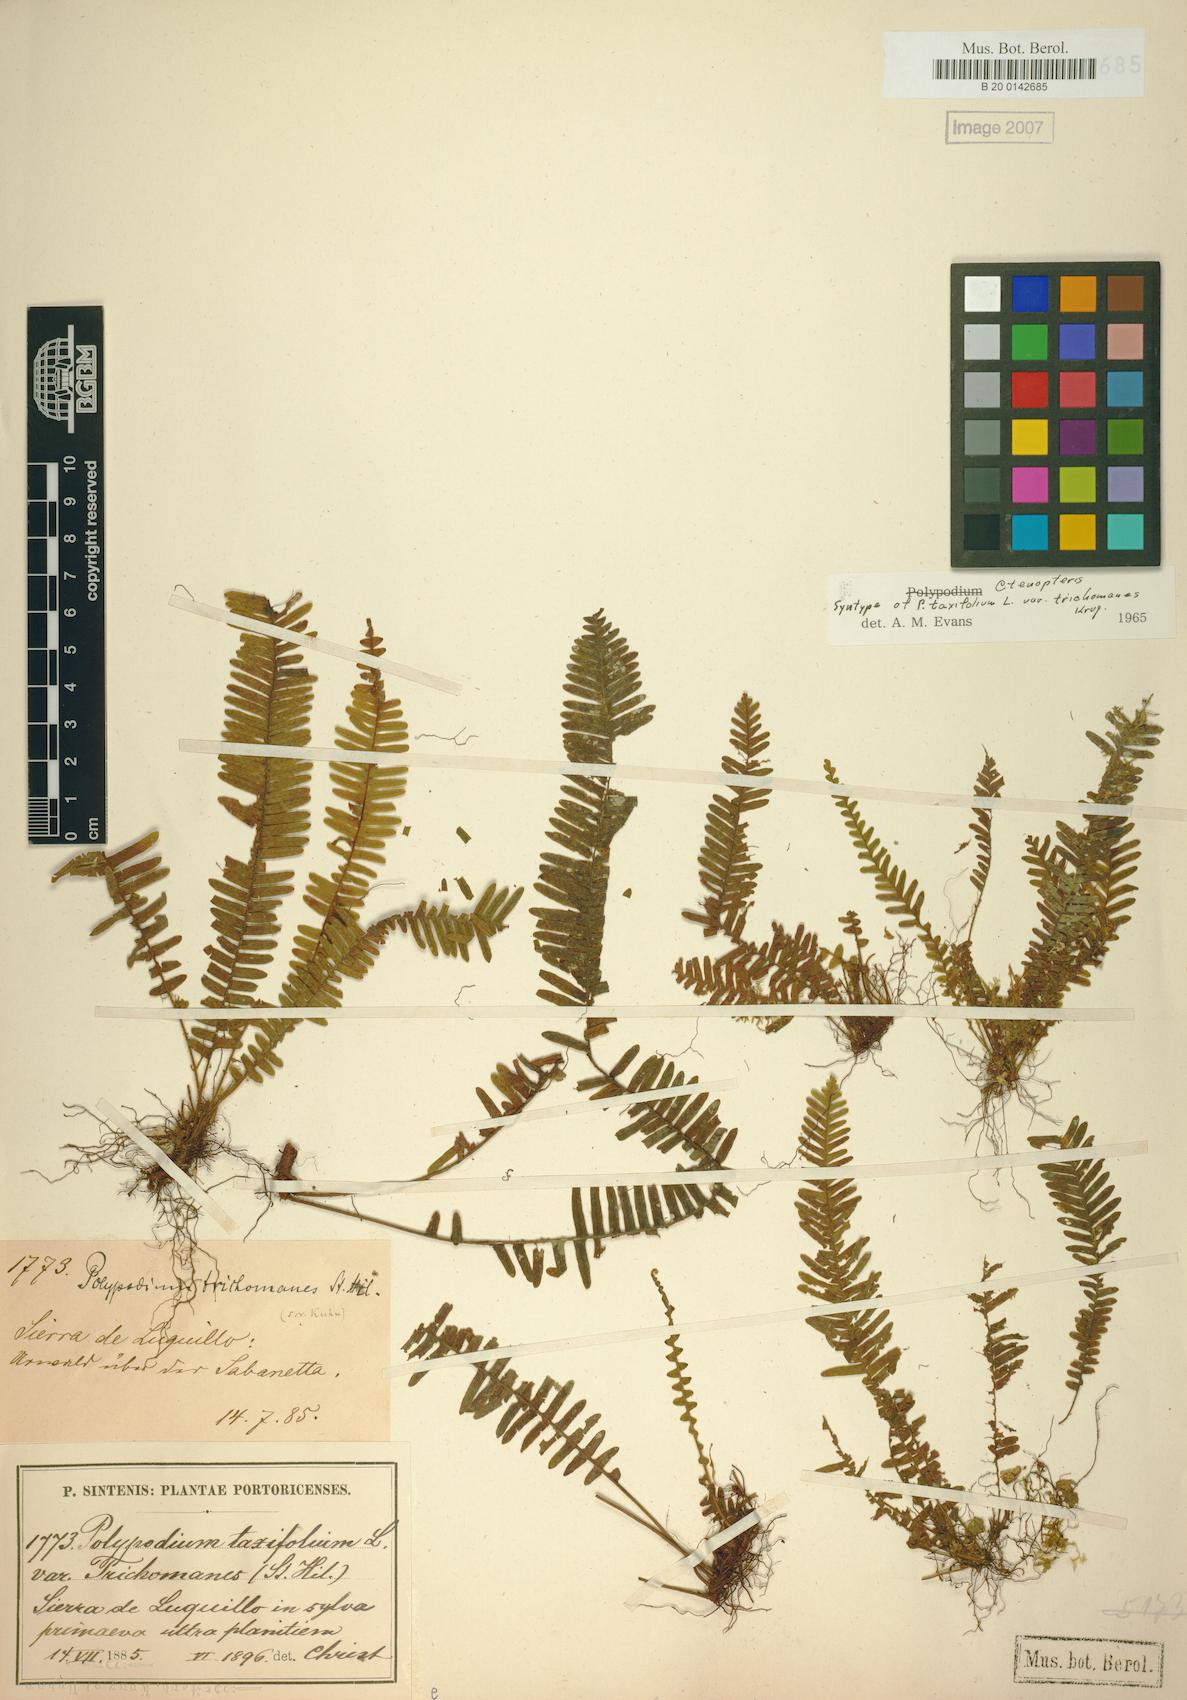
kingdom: Plantae
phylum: Tracheophyta
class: Polypodiopsida
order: Polypodiales
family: Polypodiaceae
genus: Mycopteris
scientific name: Mycopteris taxifolia
